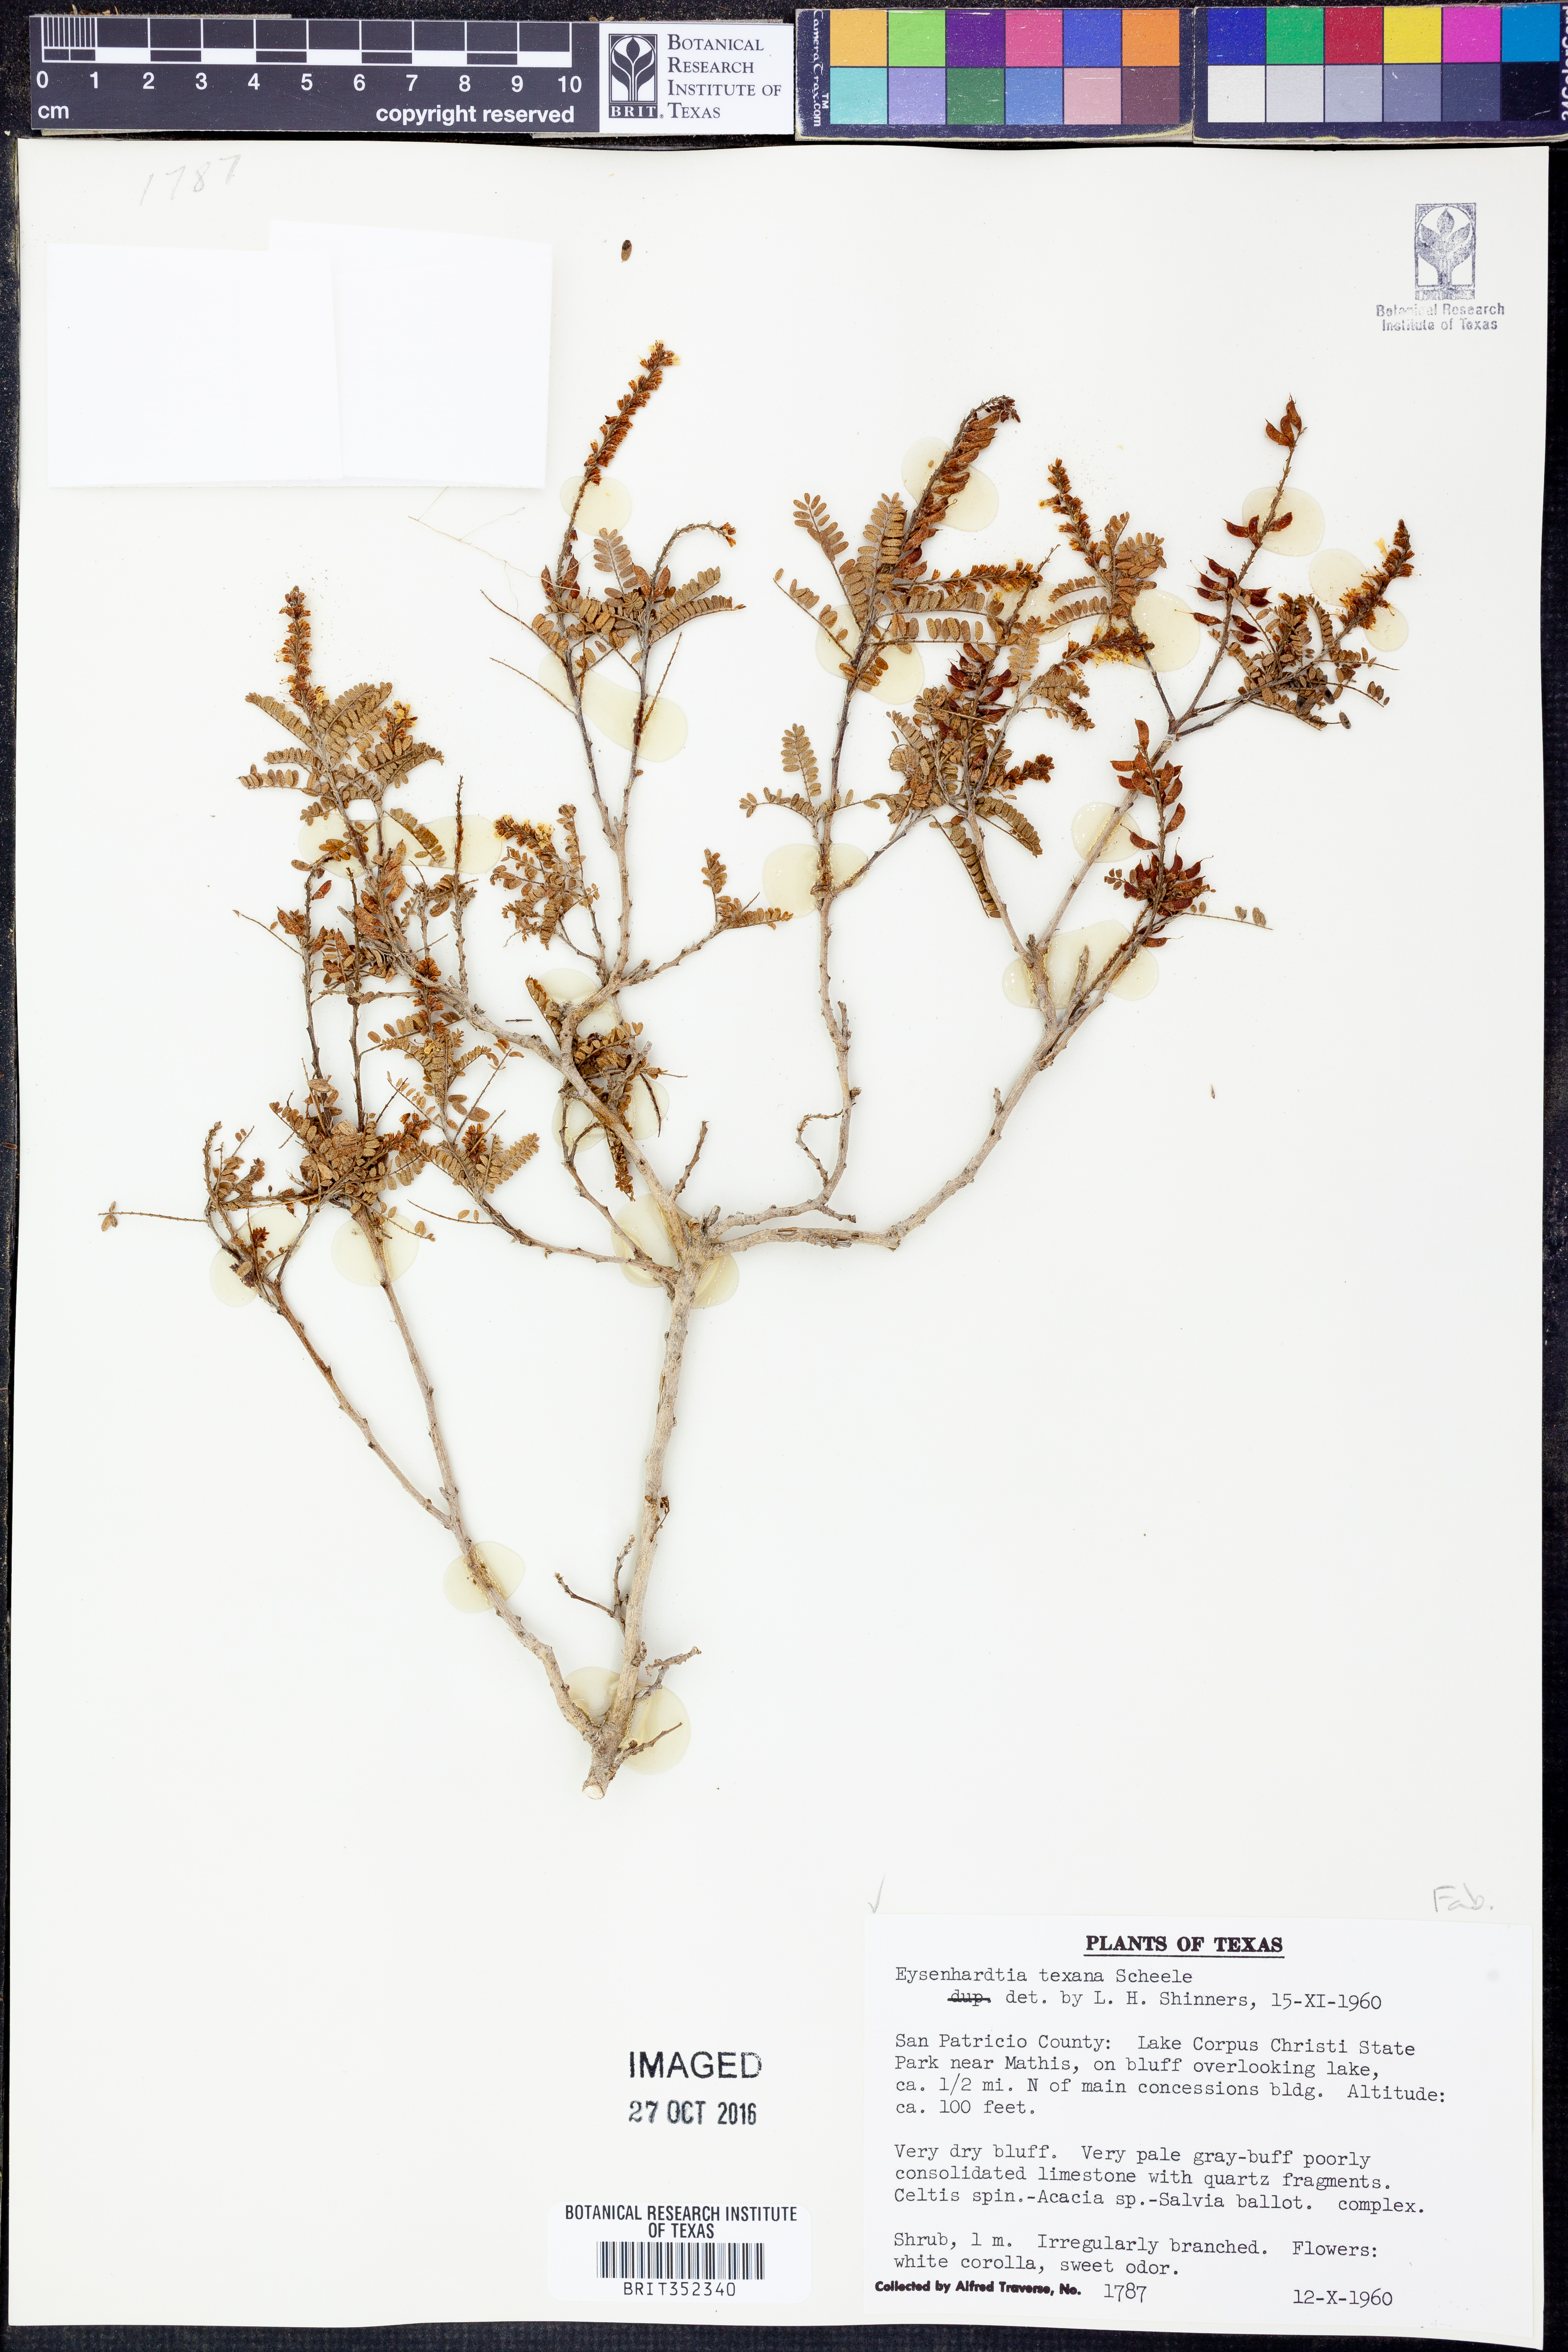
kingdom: Plantae
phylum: Tracheophyta
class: Magnoliopsida
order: Fabales
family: Fabaceae
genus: Eysenhardtia
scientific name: Eysenhardtia texana
